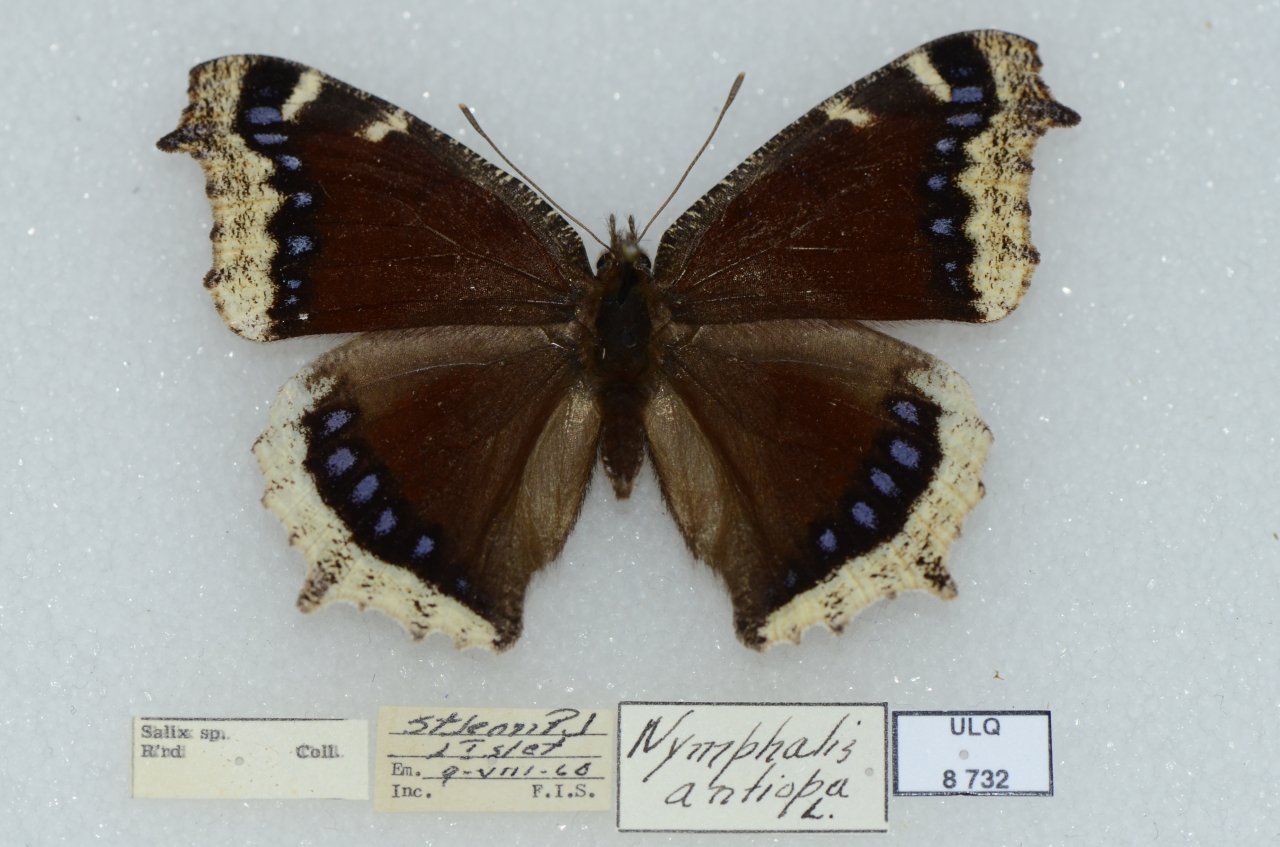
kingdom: Animalia
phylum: Arthropoda
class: Insecta
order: Lepidoptera
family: Nymphalidae
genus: Nymphalis
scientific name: Nymphalis antiopa
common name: Mourning Cloak
